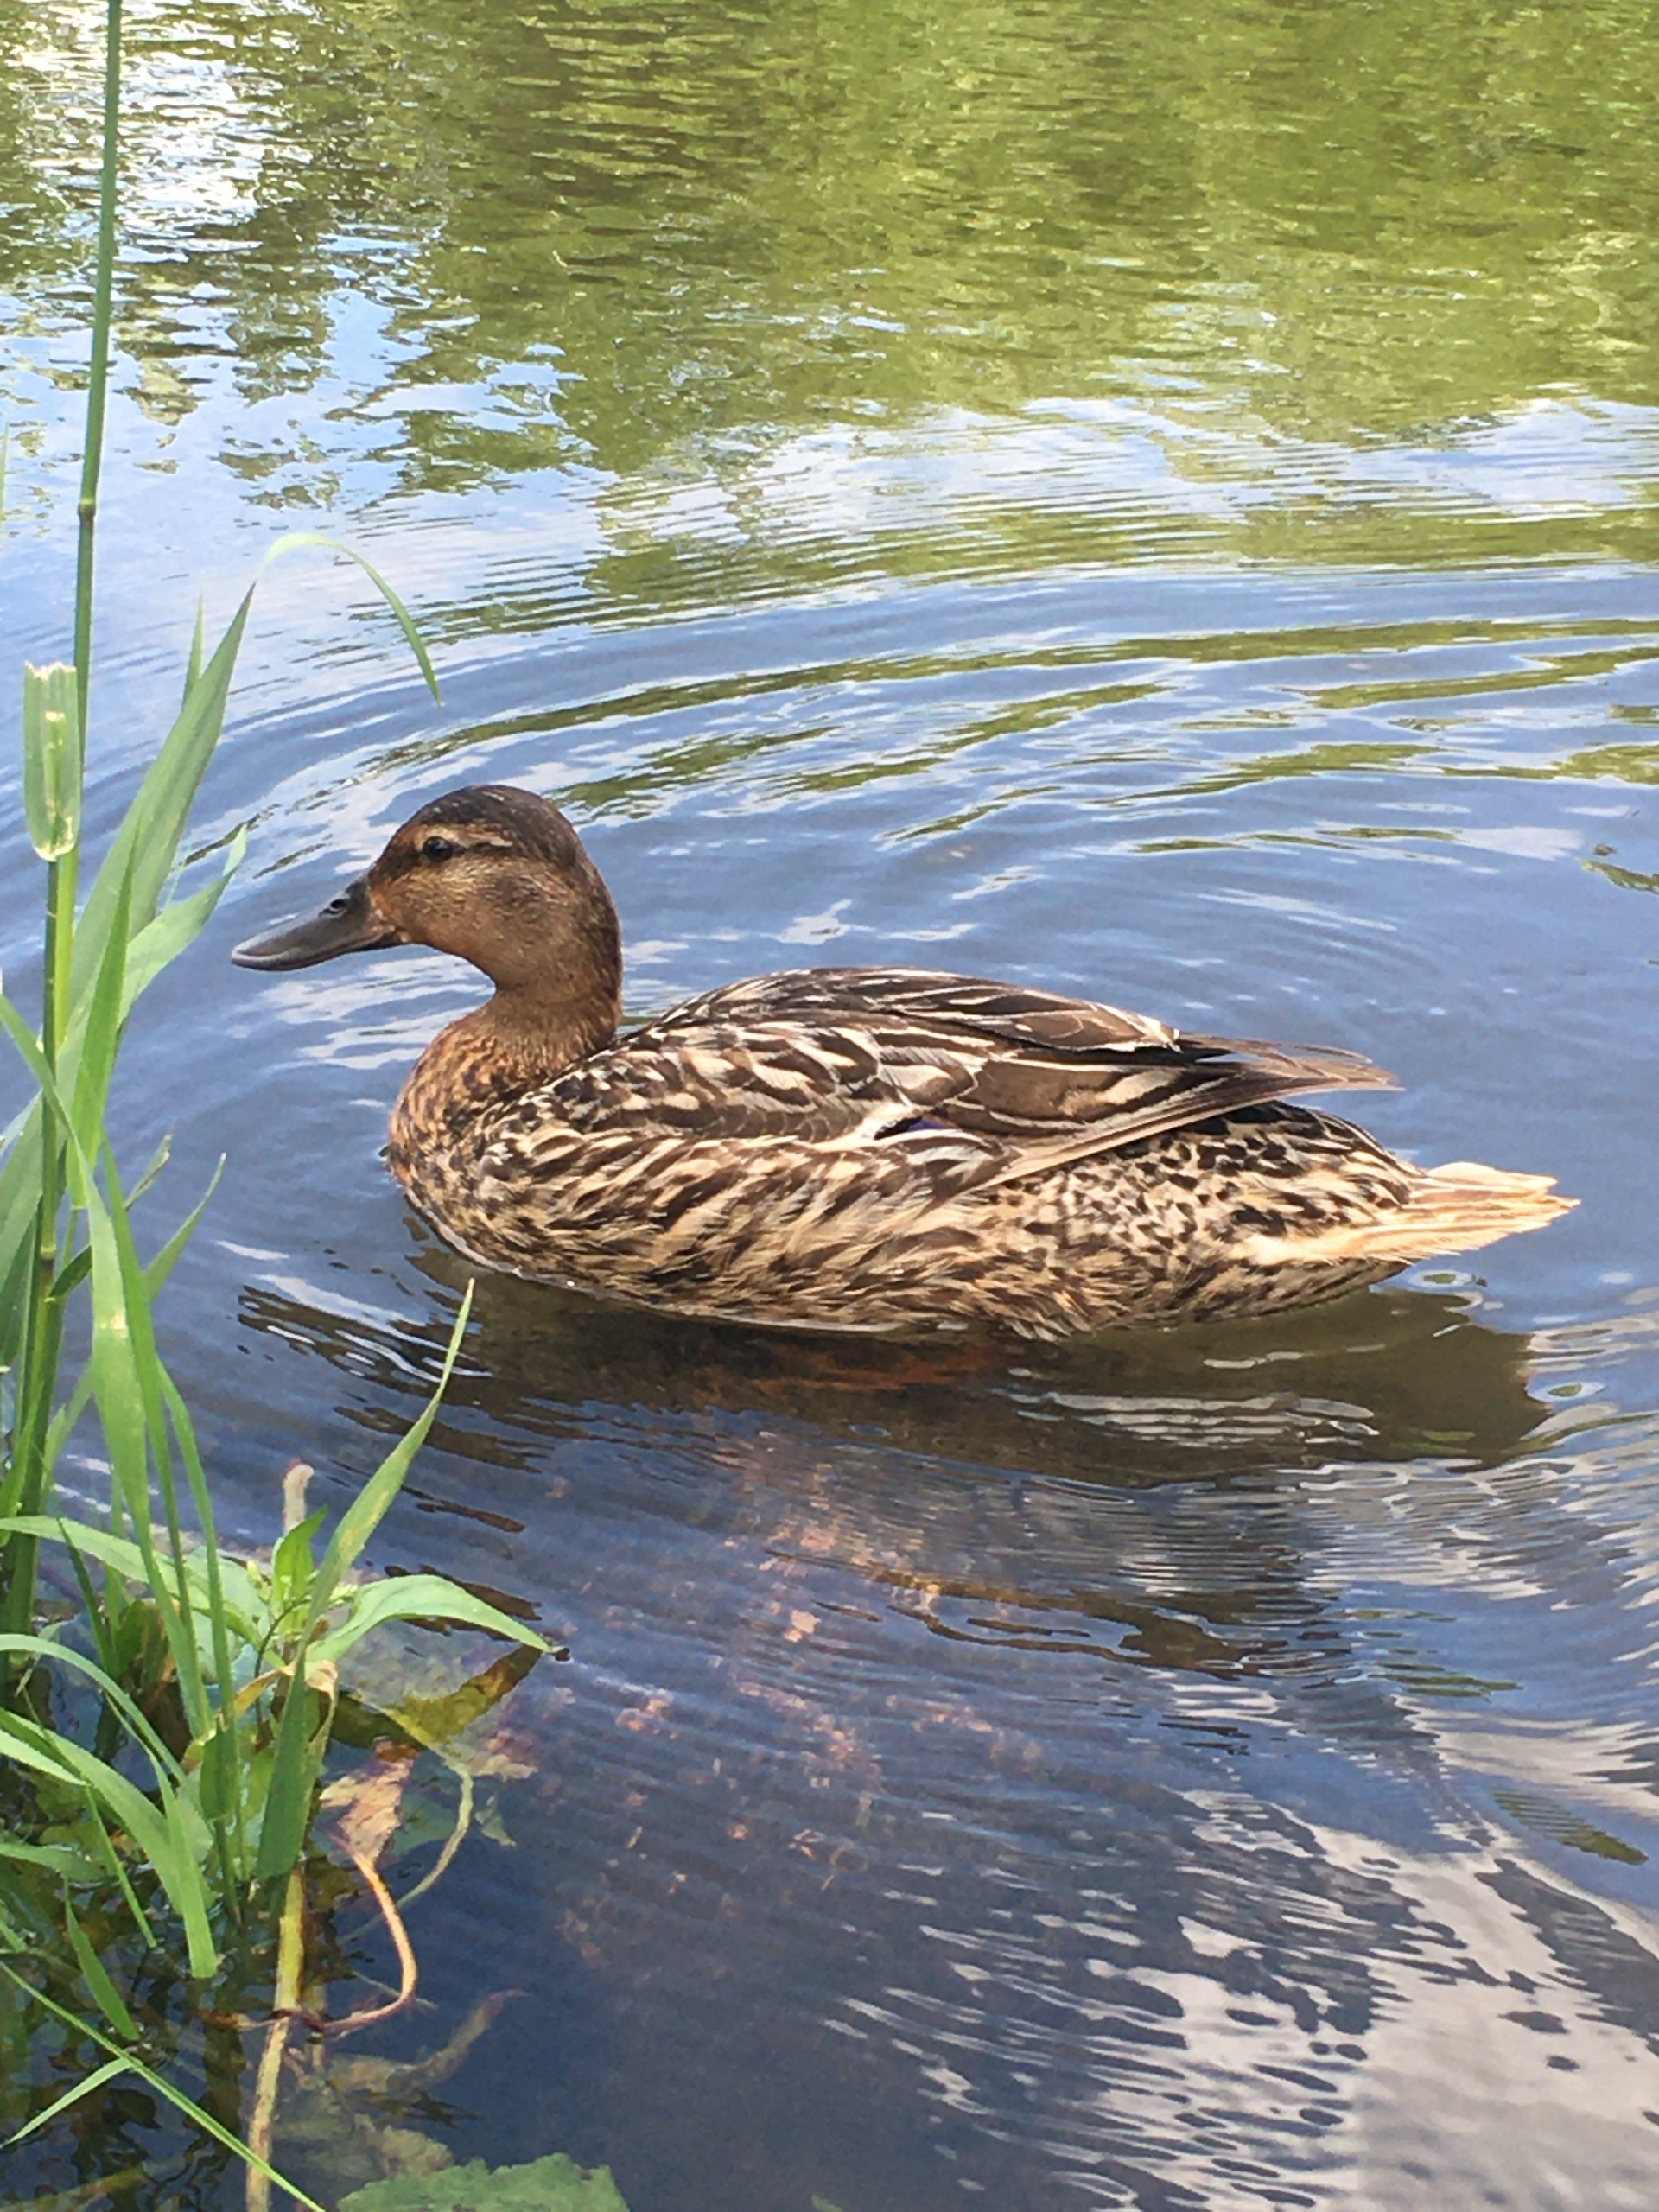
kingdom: Animalia
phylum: Chordata
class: Aves
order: Anseriformes
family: Anatidae
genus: Anas
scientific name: Anas platyrhynchos
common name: Gråand
